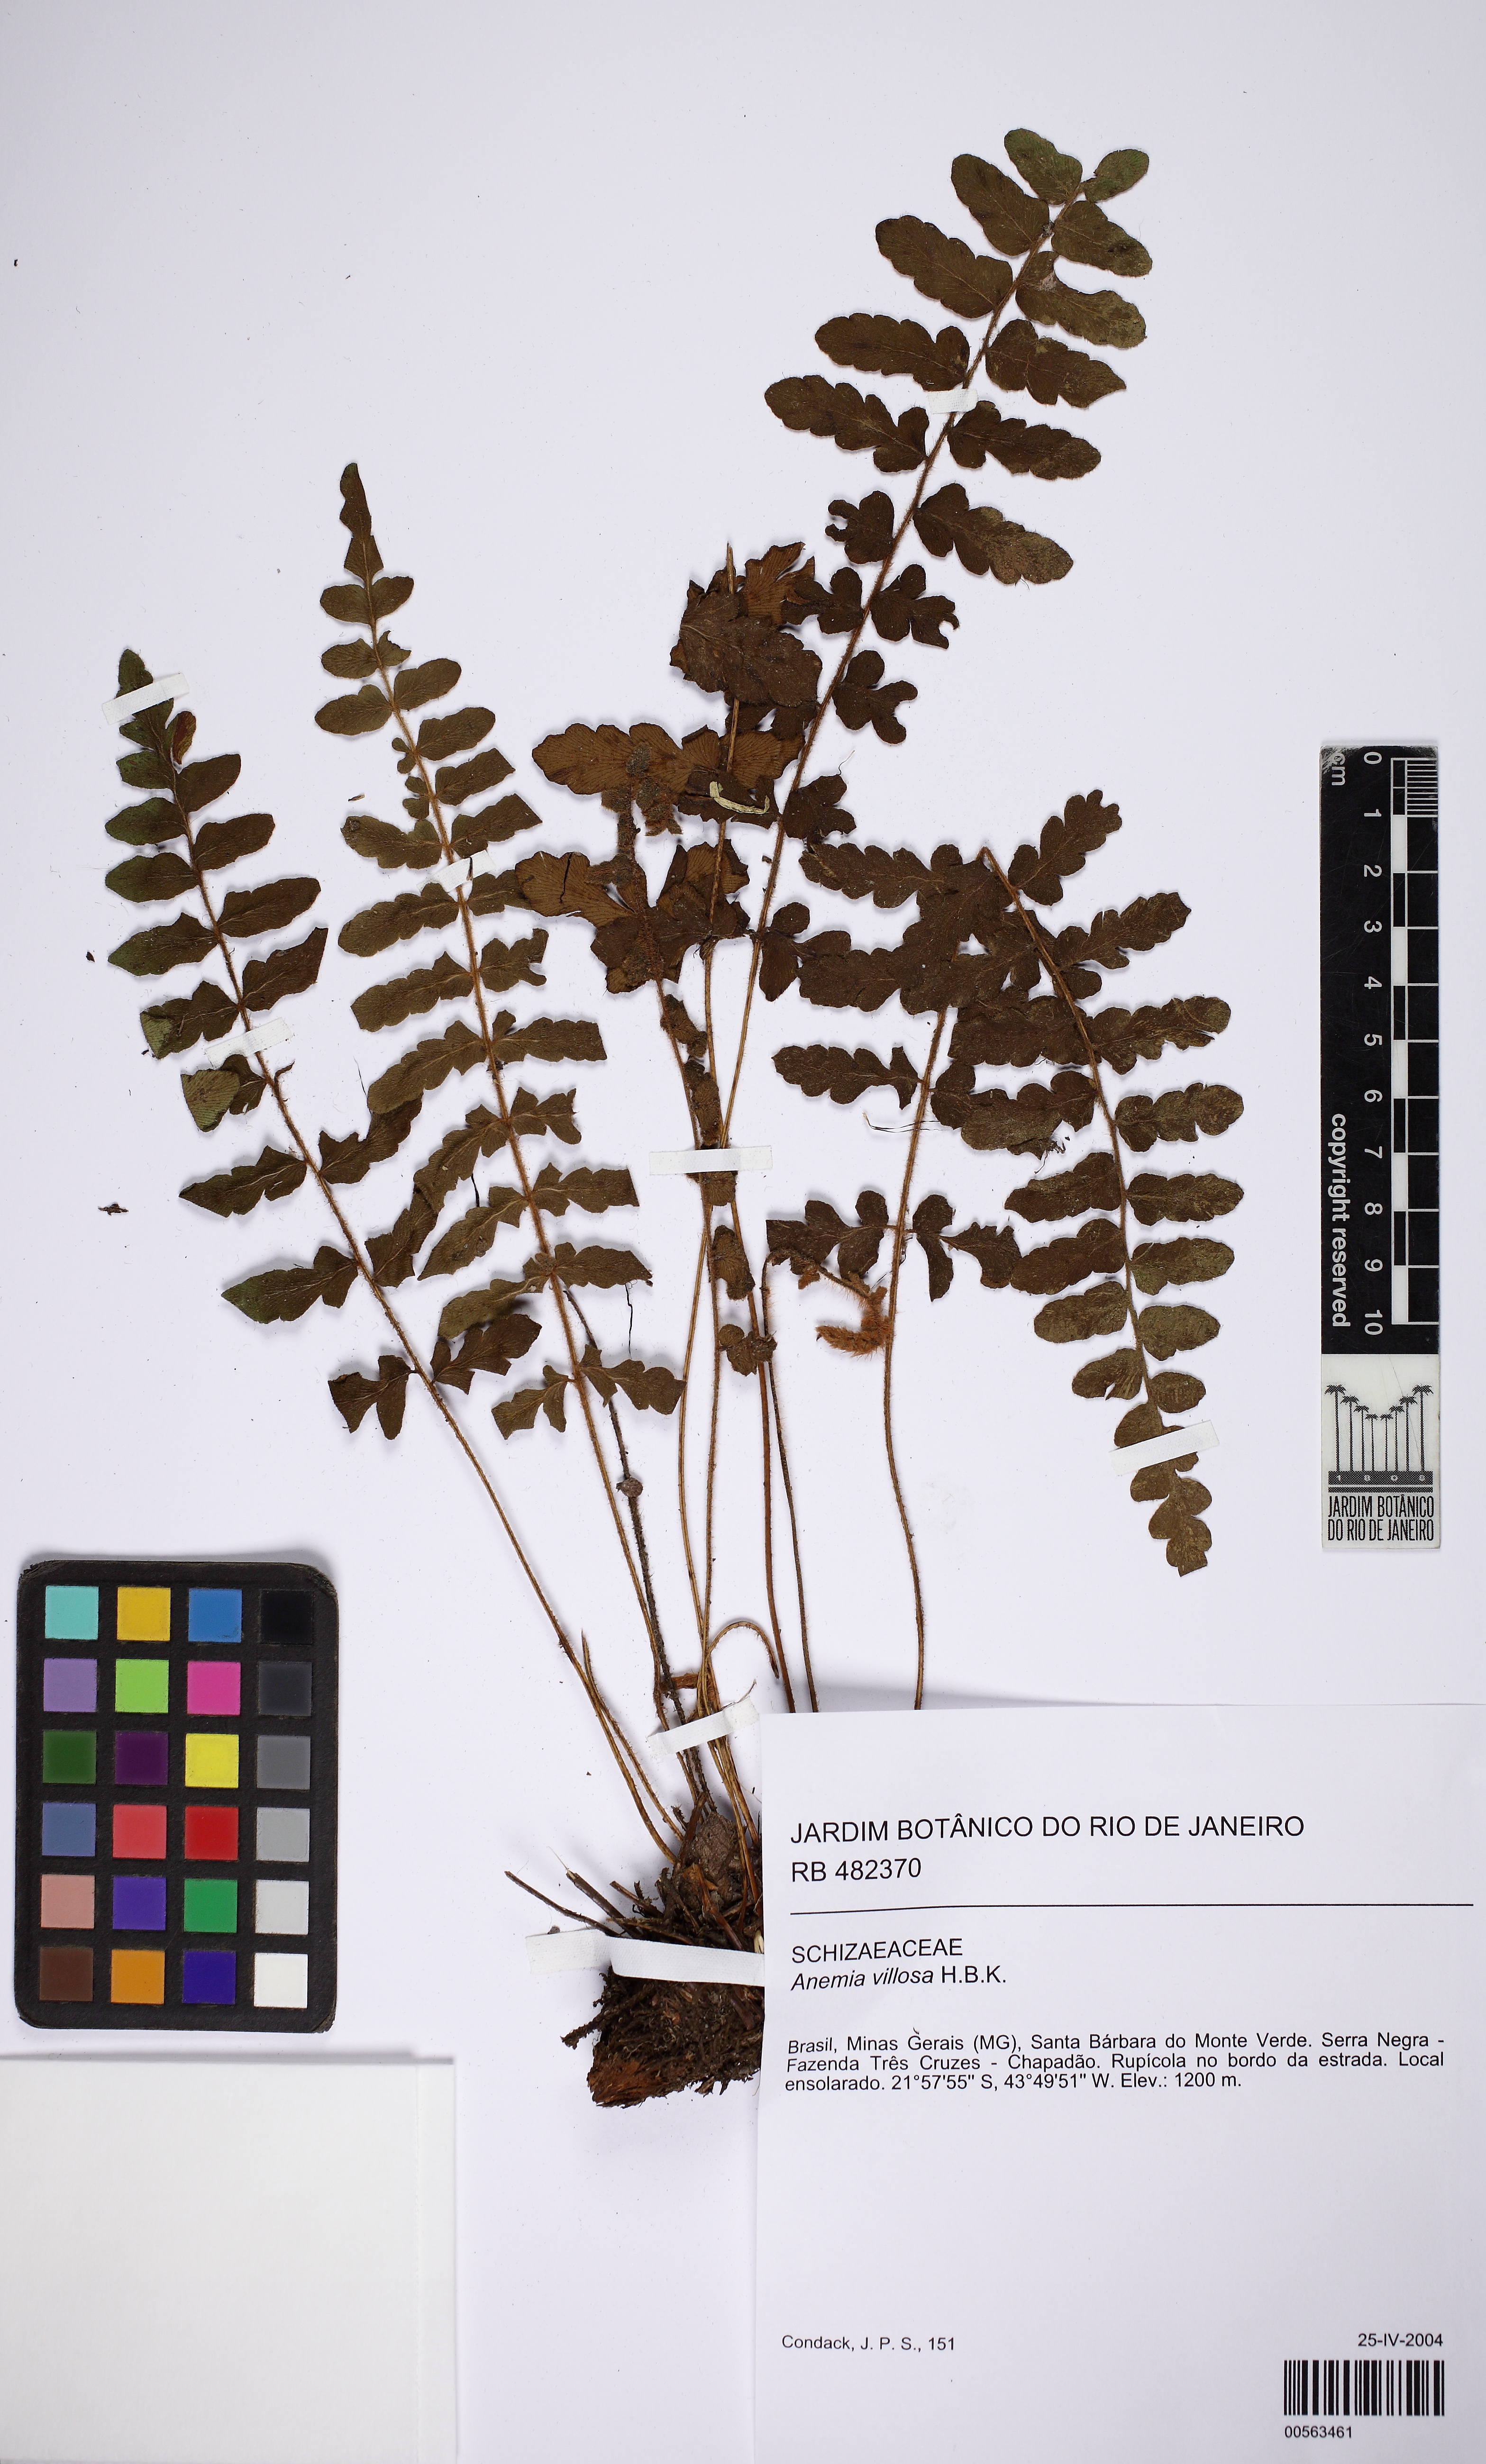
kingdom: Plantae
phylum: Tracheophyta
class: Polypodiopsida
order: Schizaeales
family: Anemiaceae
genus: Anemia
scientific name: Anemia villosa
